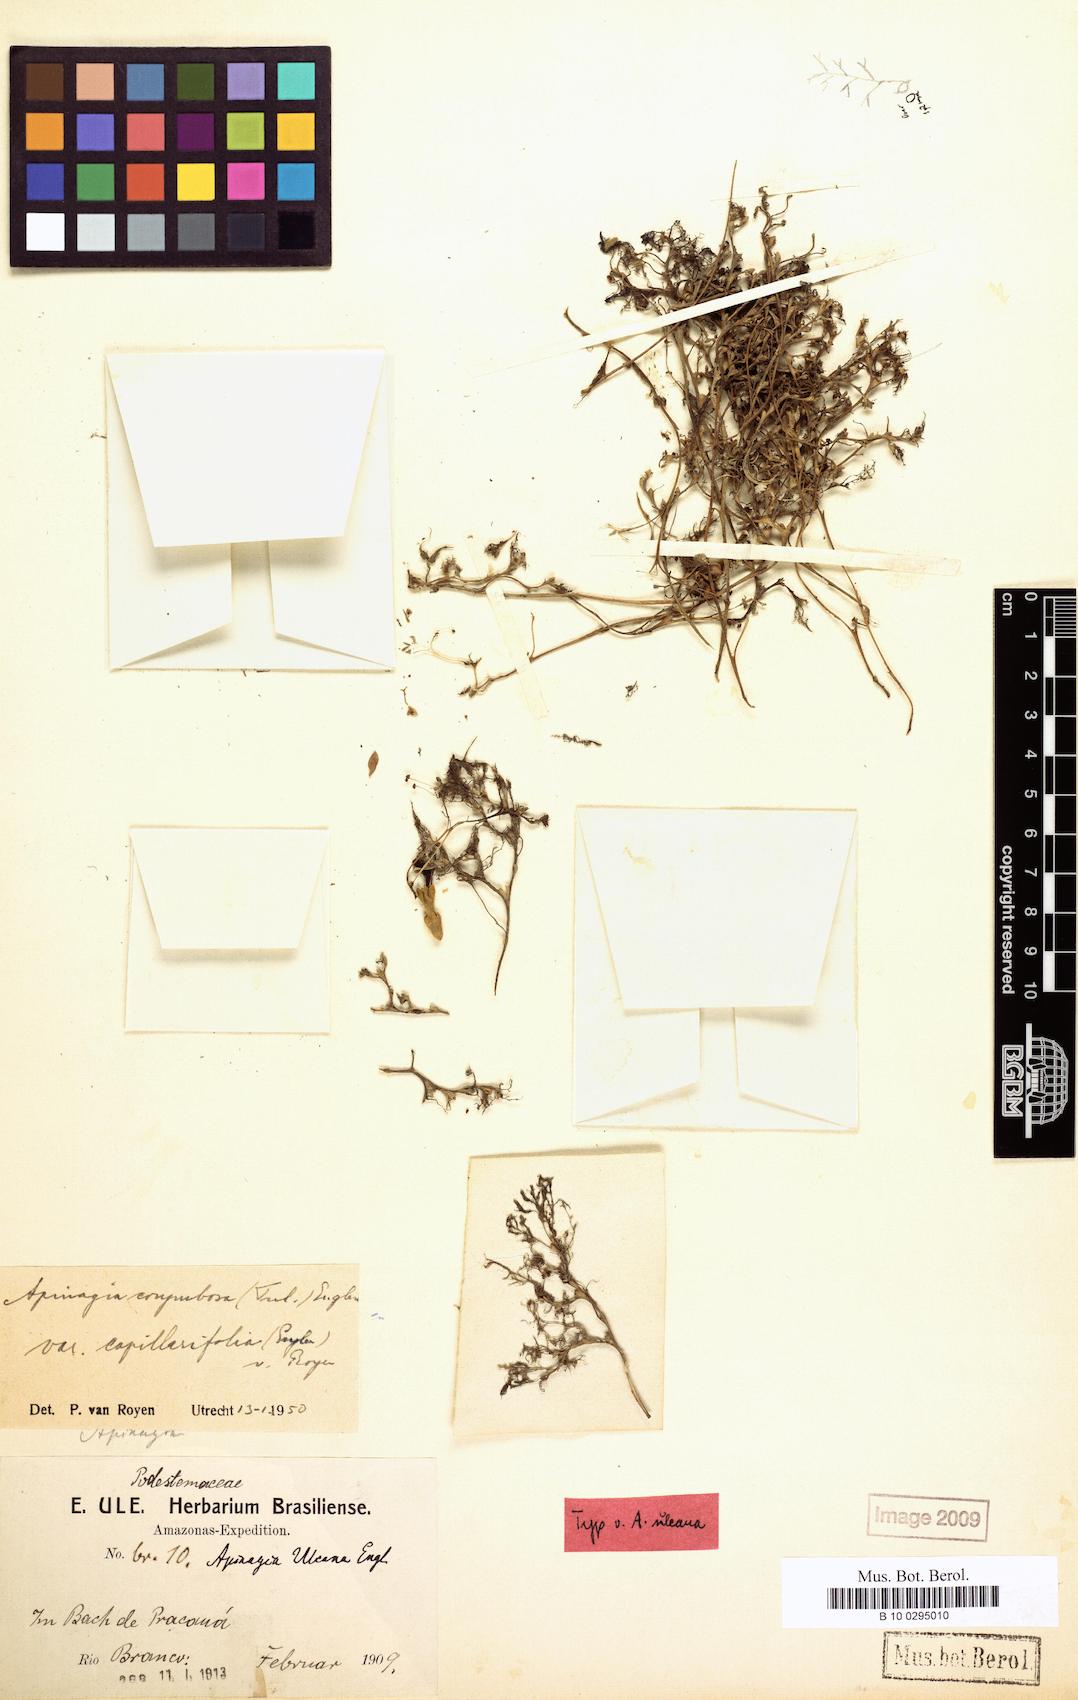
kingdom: Plantae
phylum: Tracheophyta
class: Magnoliopsida
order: Malpighiales
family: Podostemaceae
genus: Apinagia
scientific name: Apinagia corymbosa
